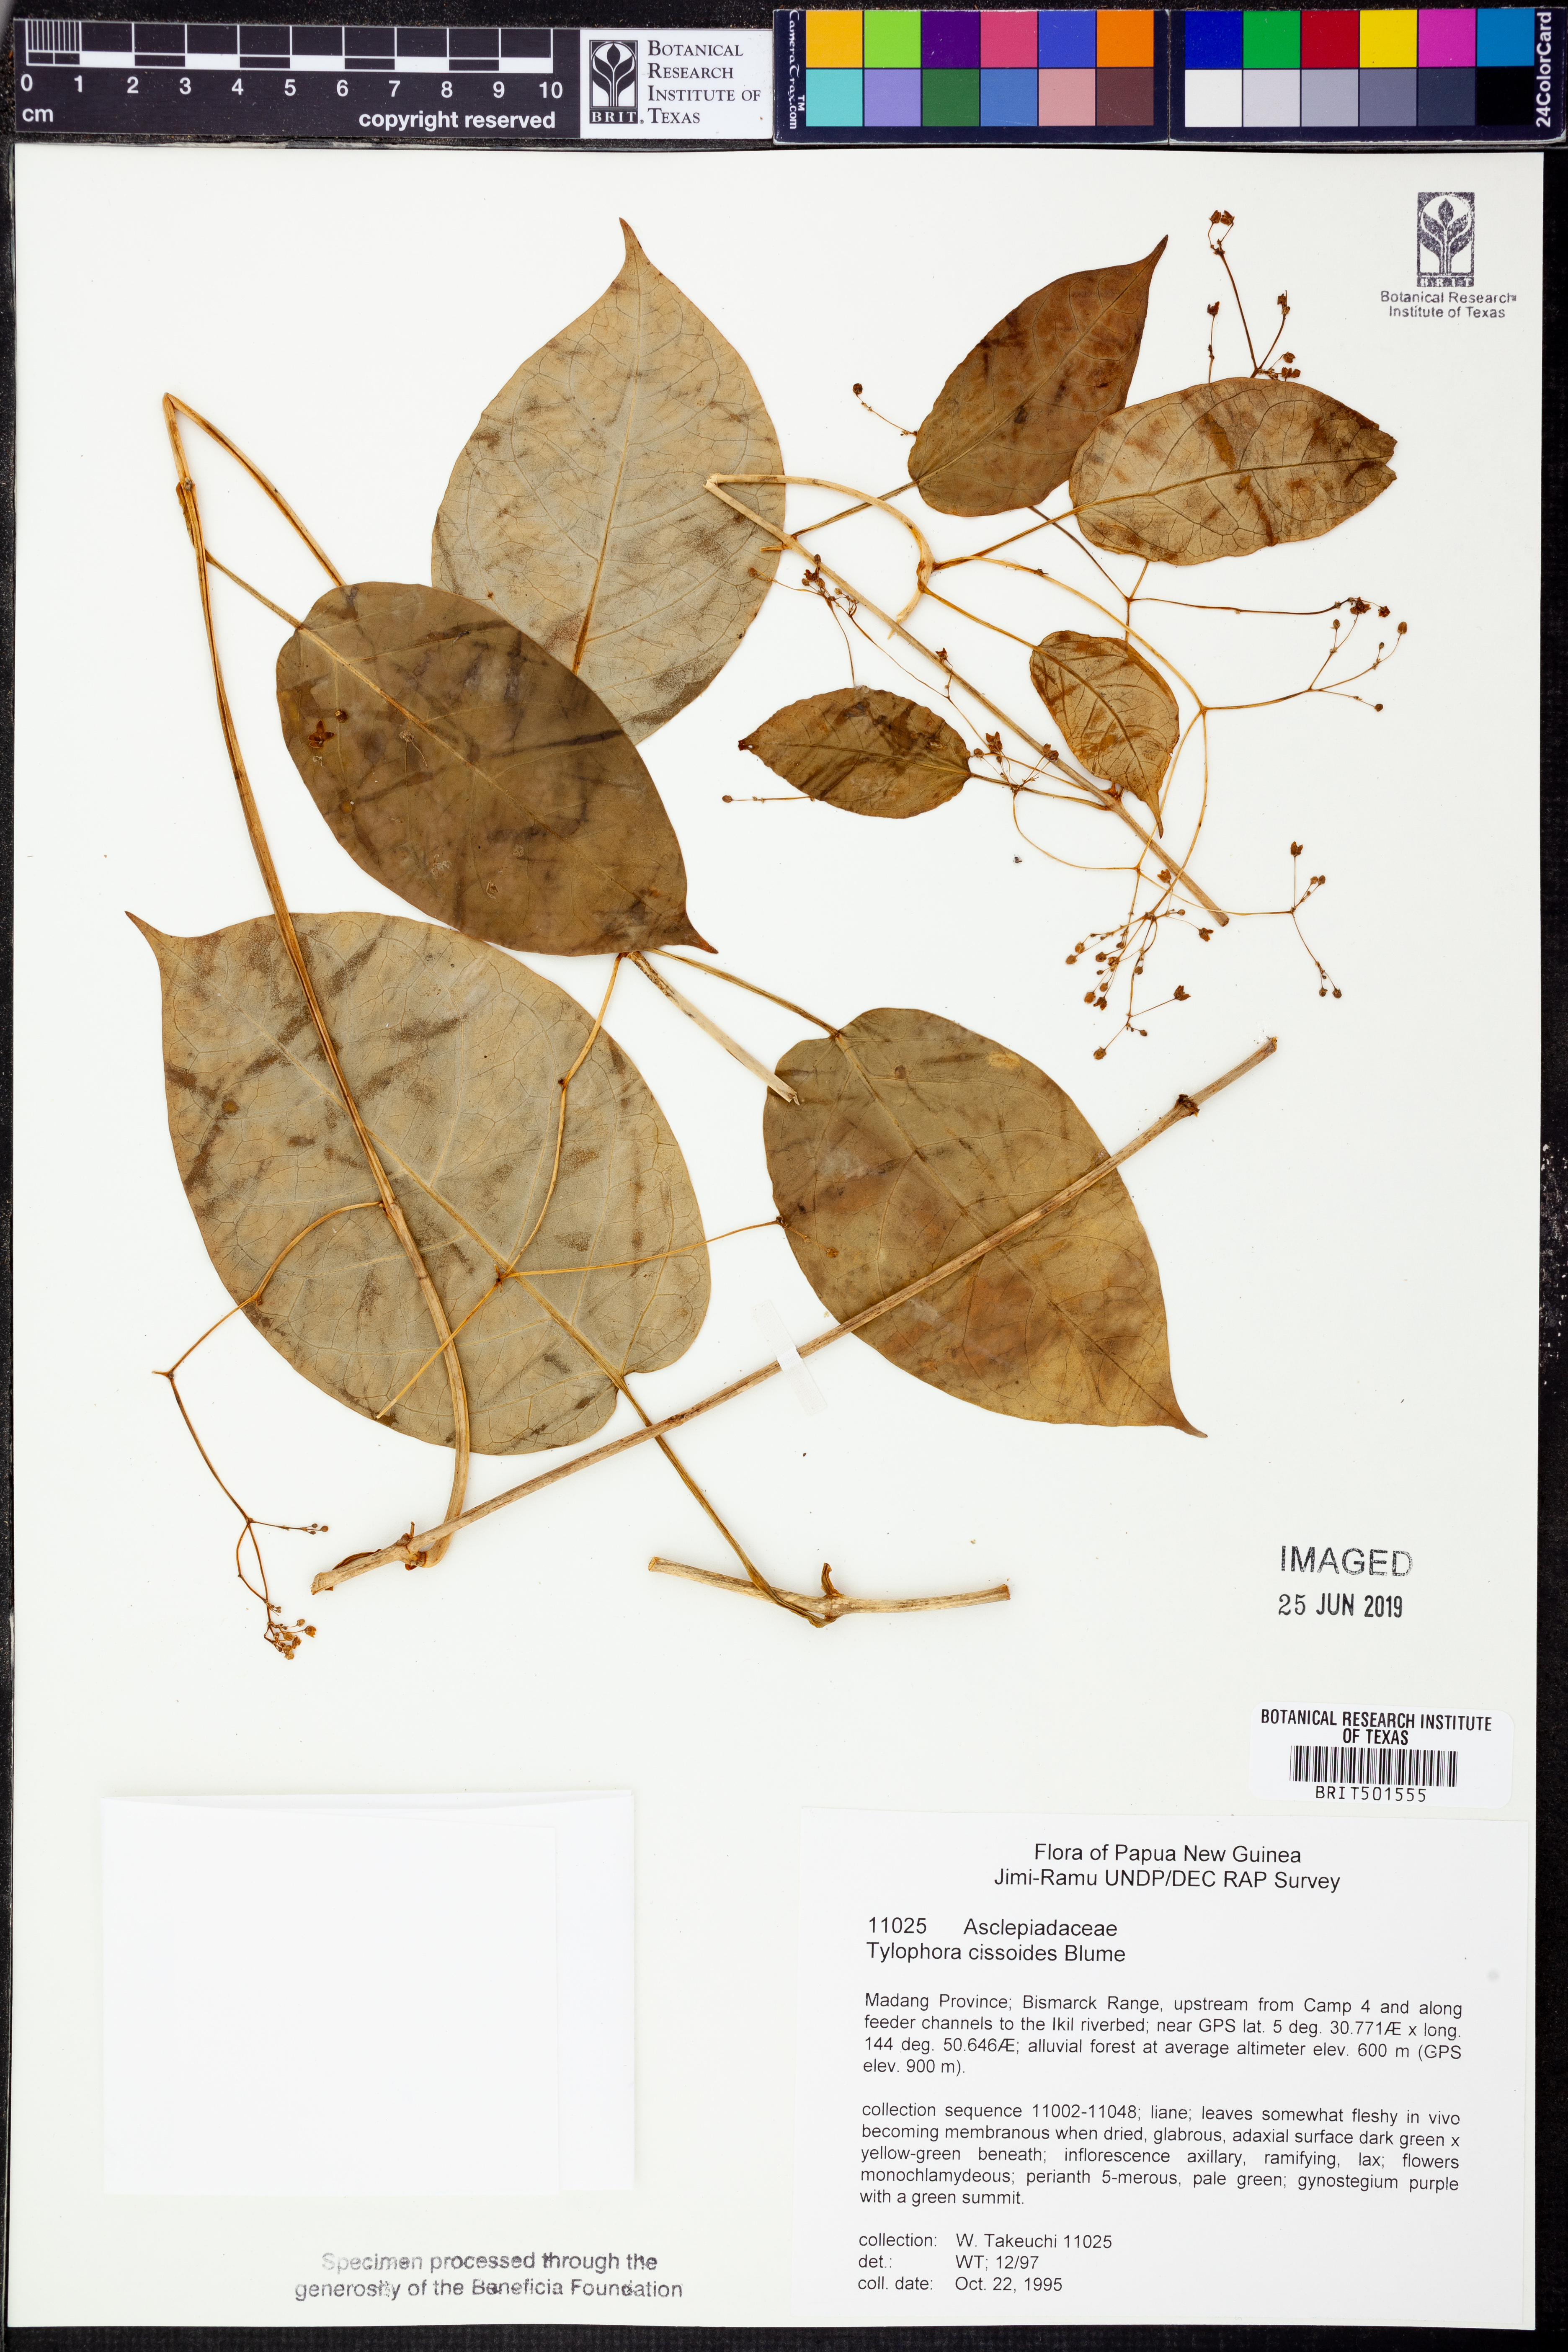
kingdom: Plantae
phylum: Tracheophyta
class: Magnoliopsida
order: Gentianales
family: Apocynaceae
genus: Vincetoxicum
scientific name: Vincetoxicum cissoides
